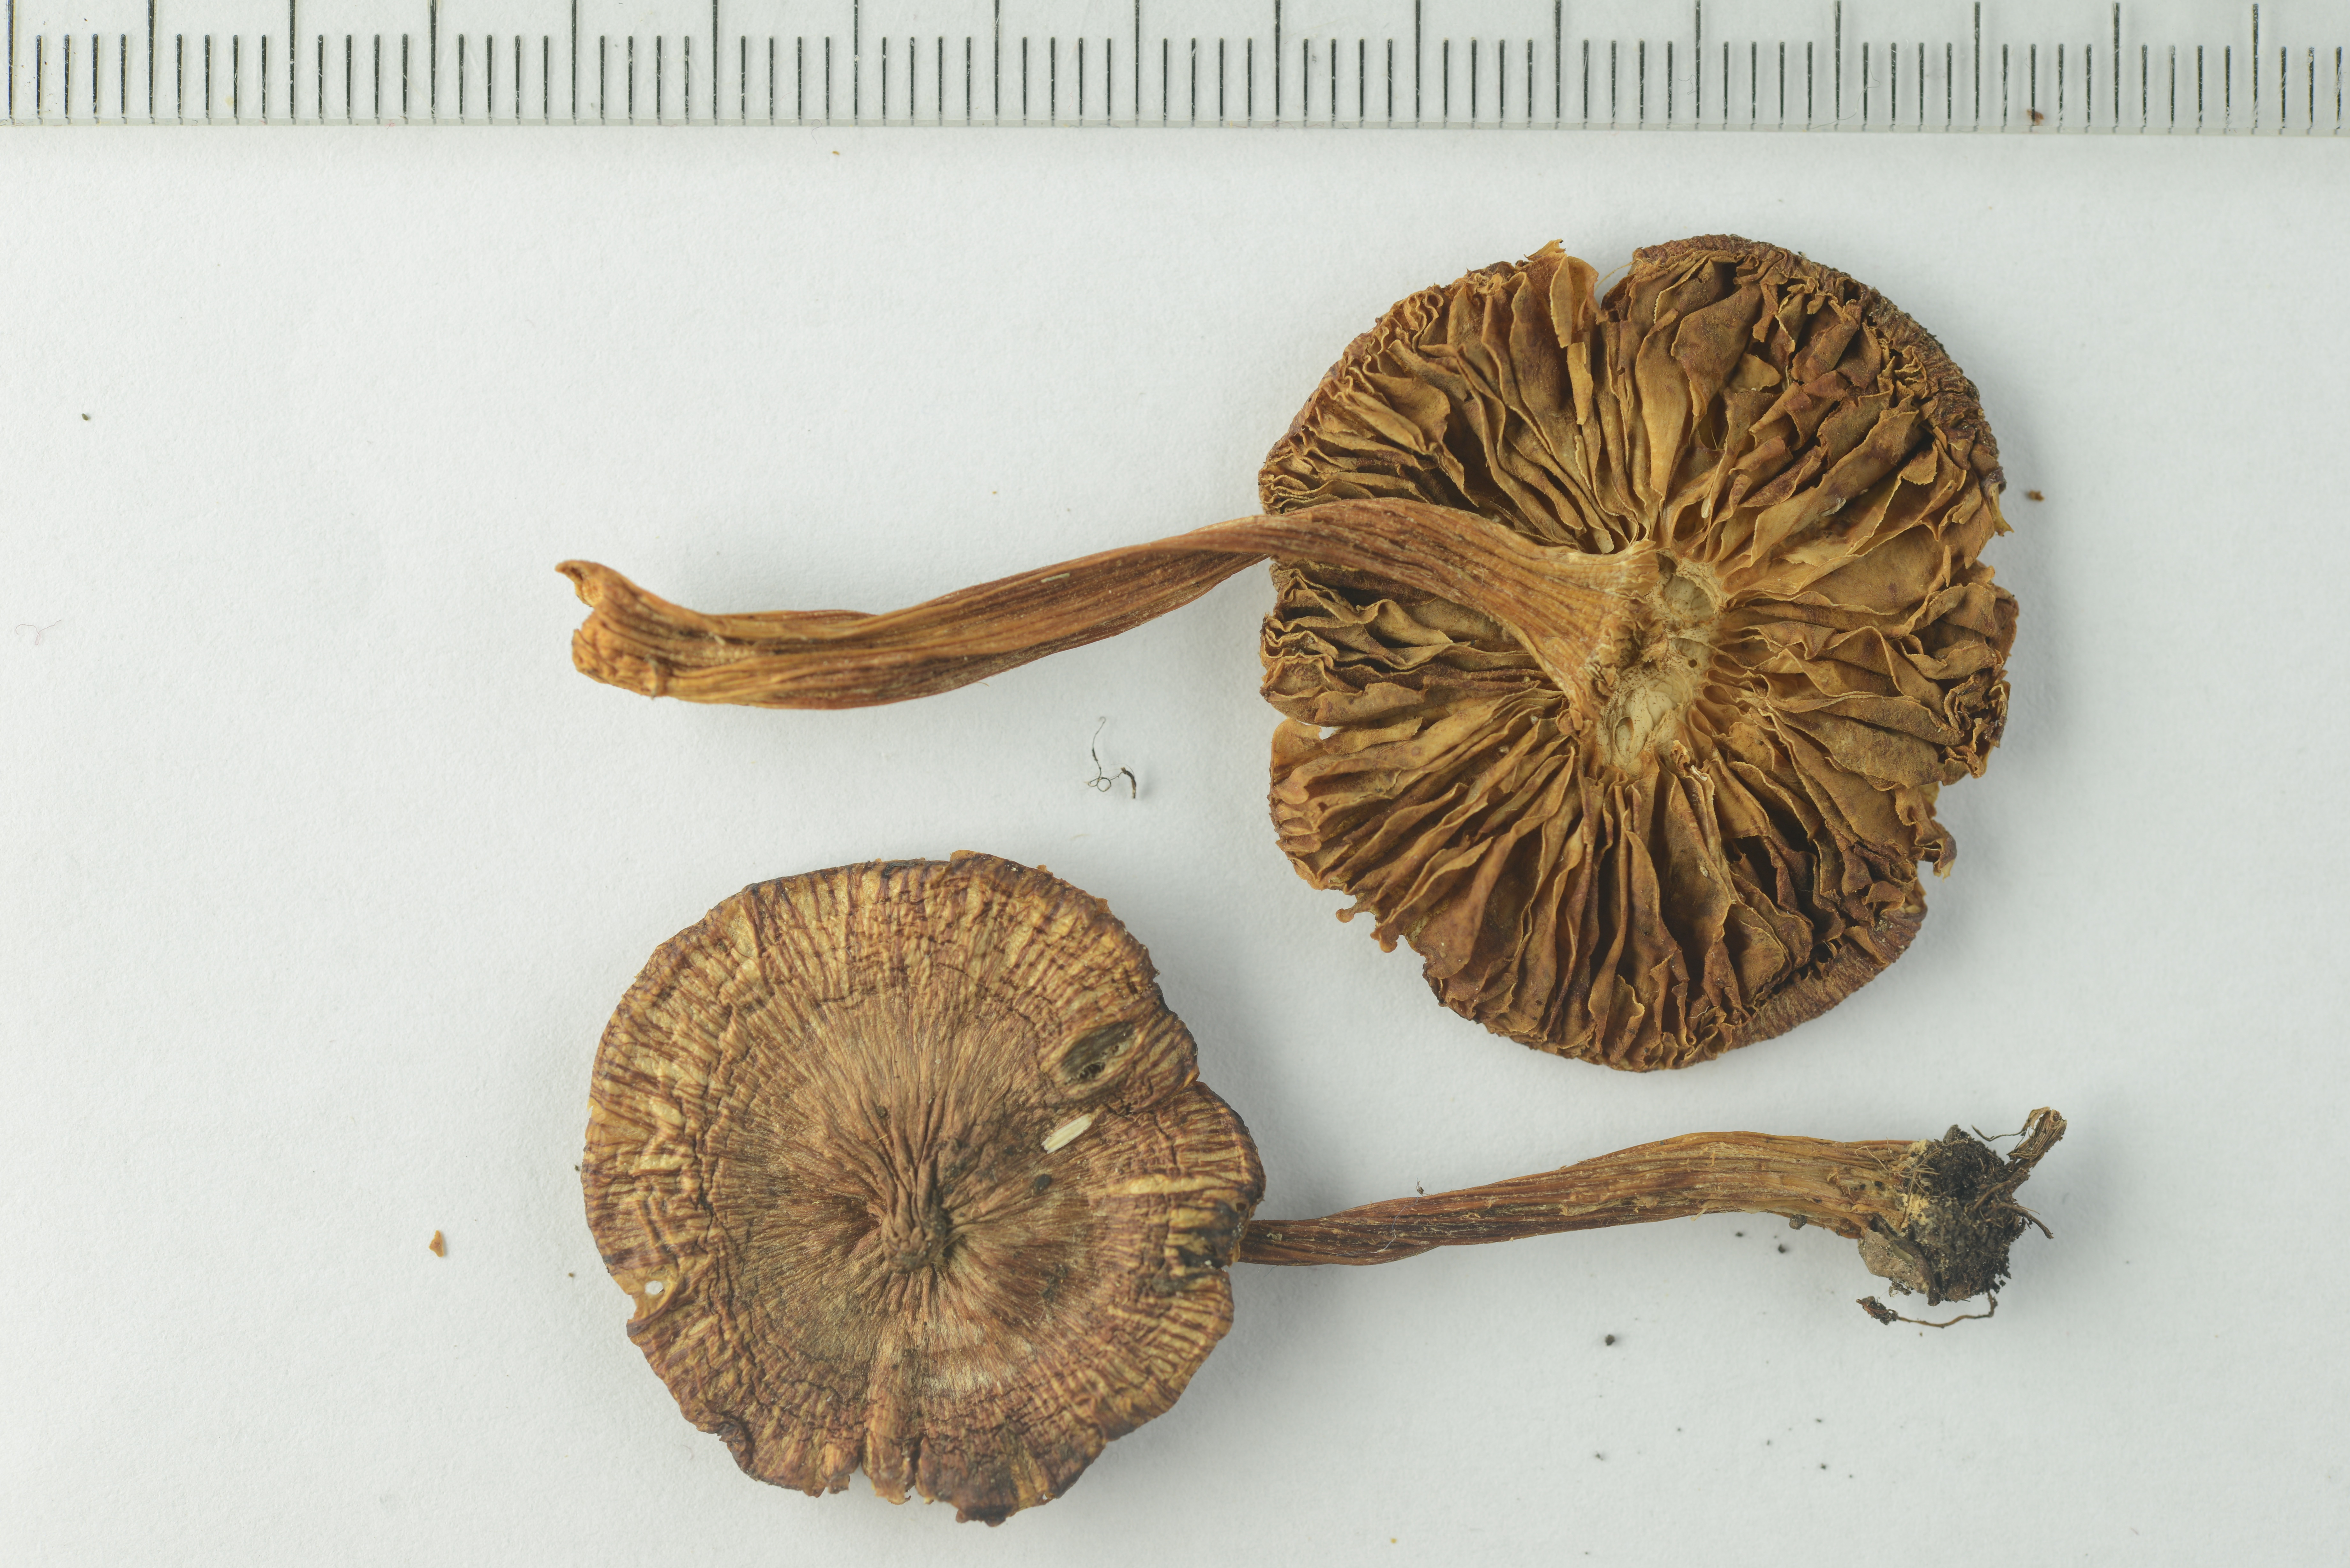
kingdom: Fungi
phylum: Basidiomycota
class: Agaricomycetes
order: Agaricales
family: Inocybaceae
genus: Inocybe
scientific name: Inocybe fuscidula
